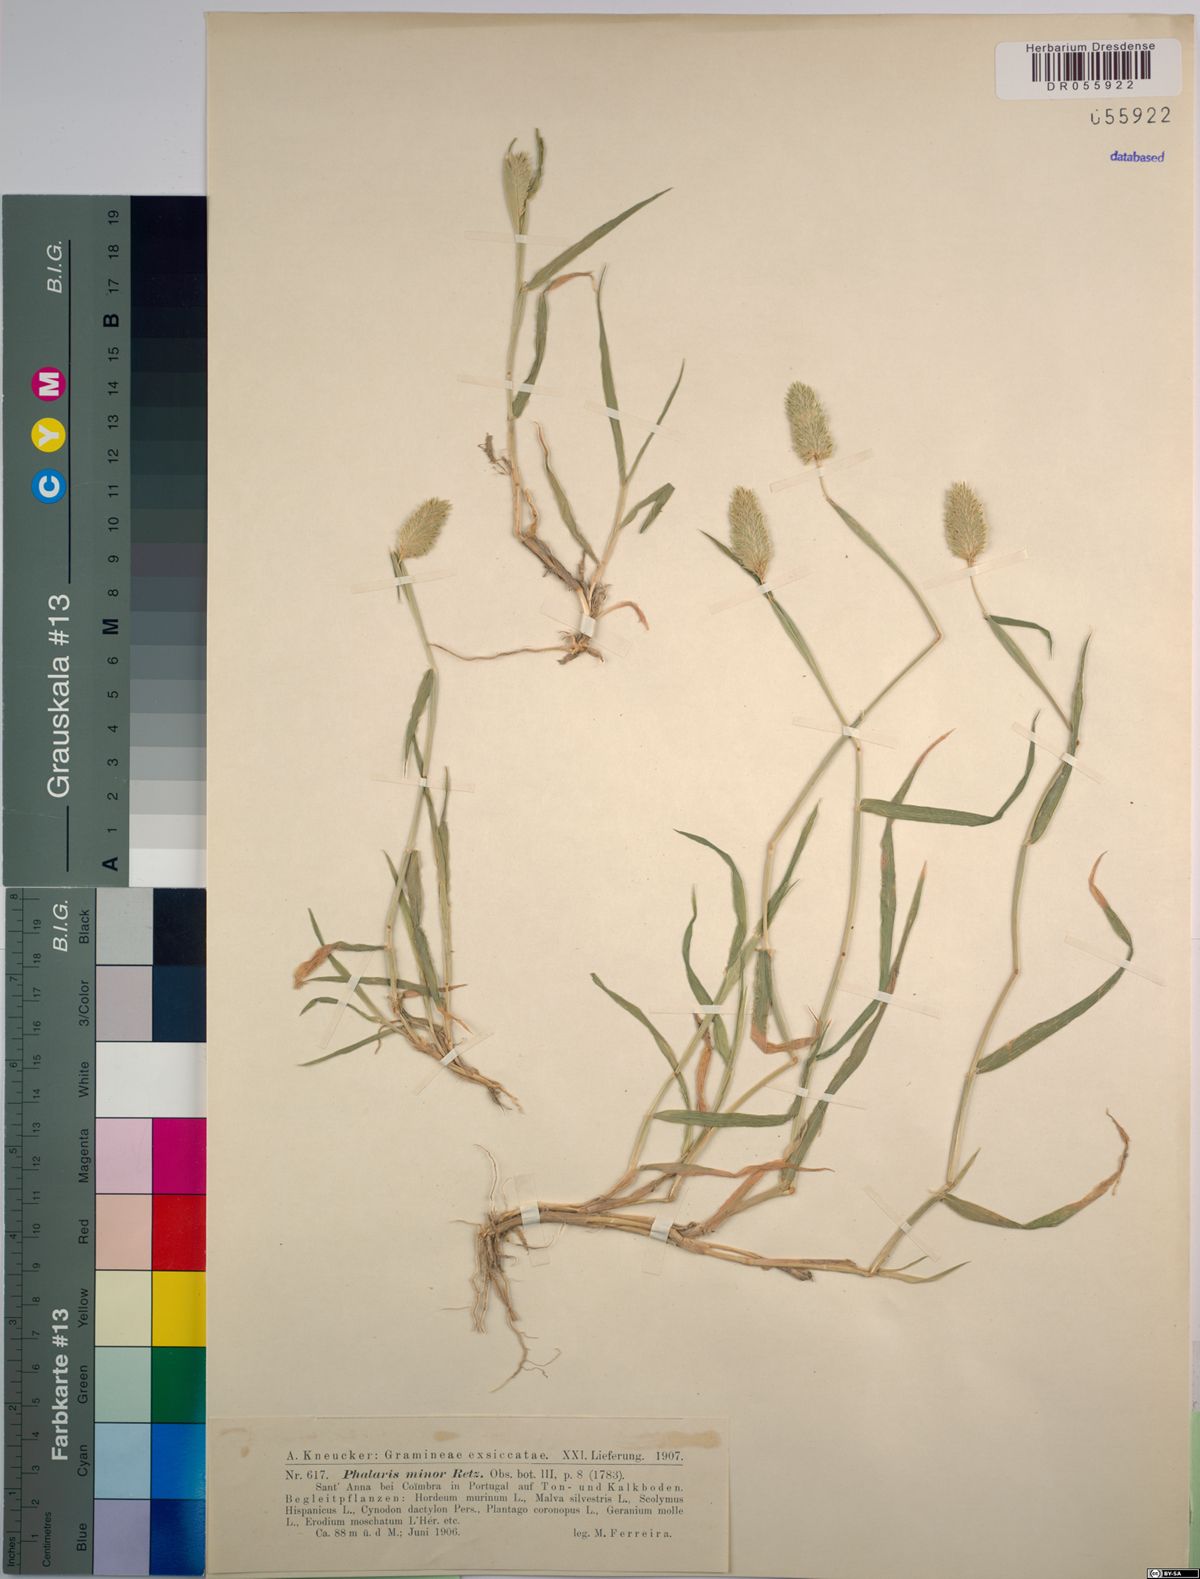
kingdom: Plantae
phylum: Tracheophyta
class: Liliopsida
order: Poales
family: Poaceae
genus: Phalaris
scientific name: Phalaris minor
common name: Littleseed canarygrass
